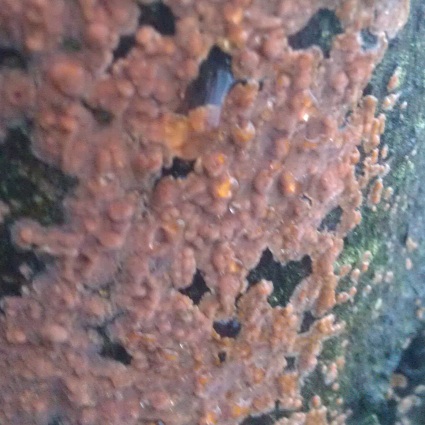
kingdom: Fungi
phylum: Basidiomycota
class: Agaricomycetes
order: Russulales
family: Peniophoraceae
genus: Peniophora
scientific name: Peniophora incarnata
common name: laksefarvet voksskind
